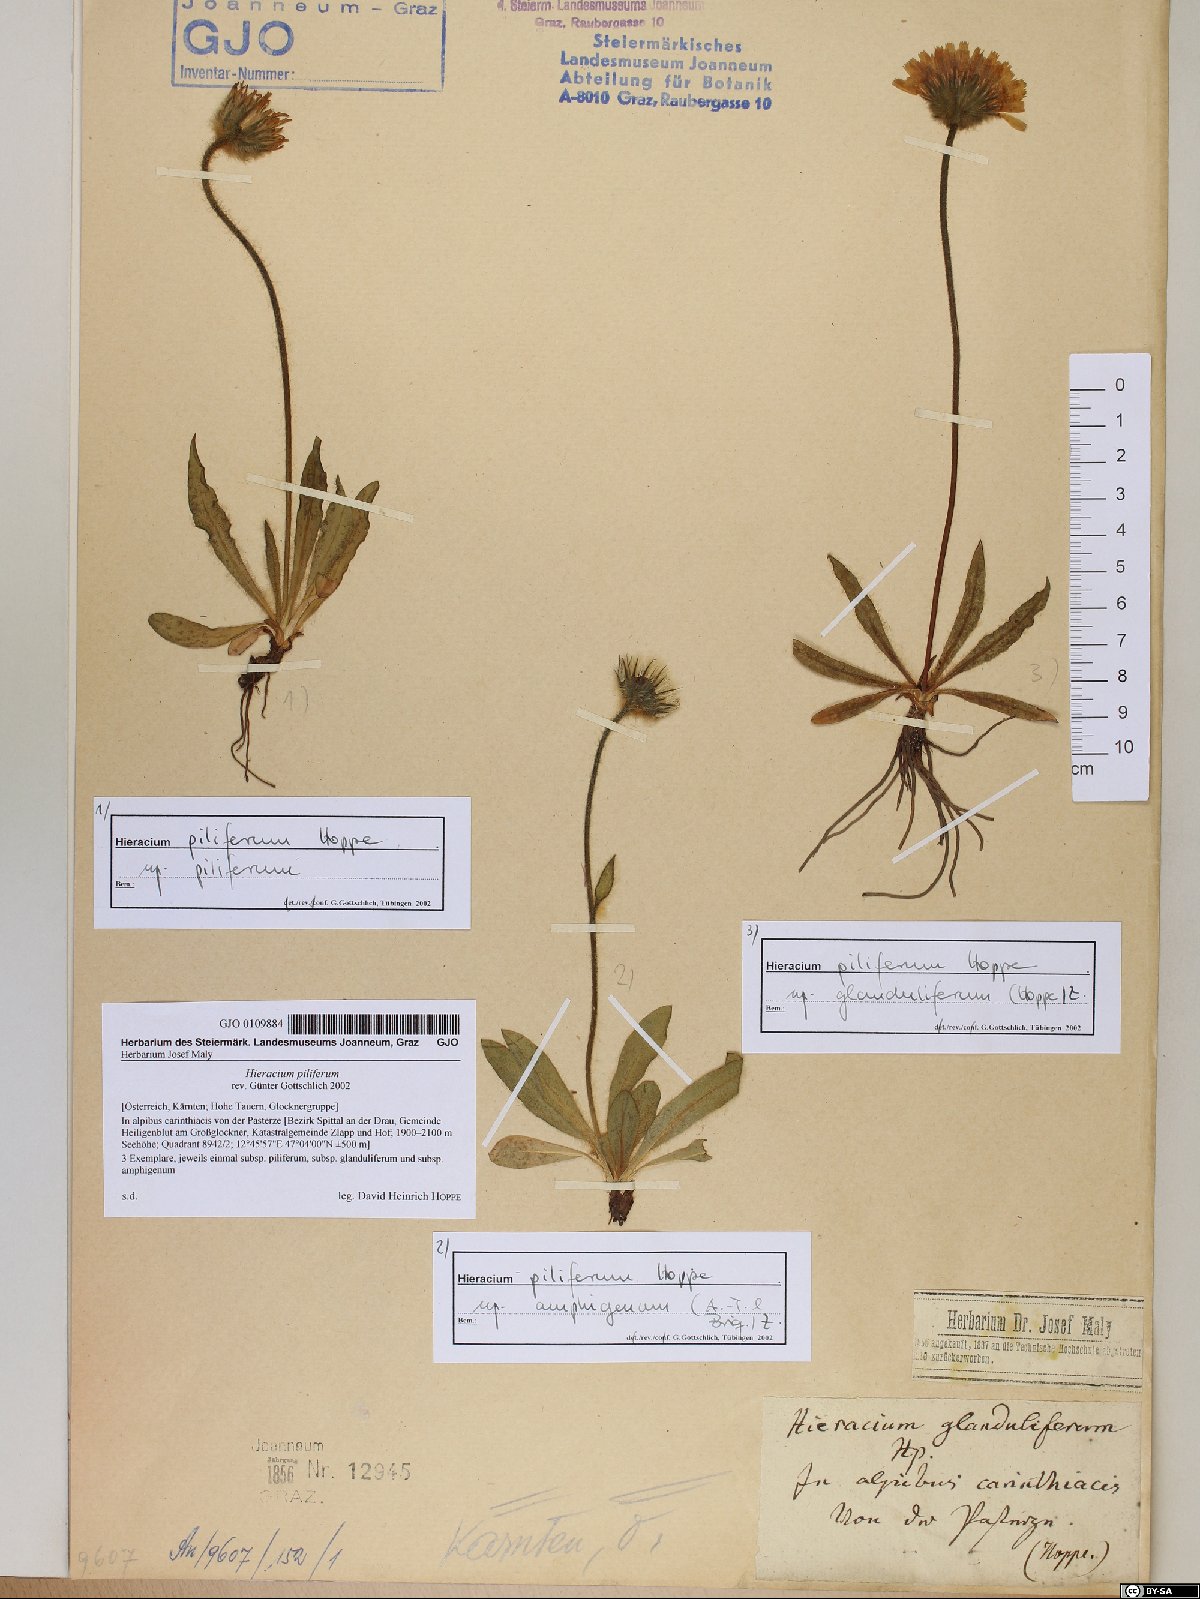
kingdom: Plantae
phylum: Tracheophyta
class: Magnoliopsida
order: Asterales
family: Asteraceae
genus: Hieracium
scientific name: Hieracium piliferum
